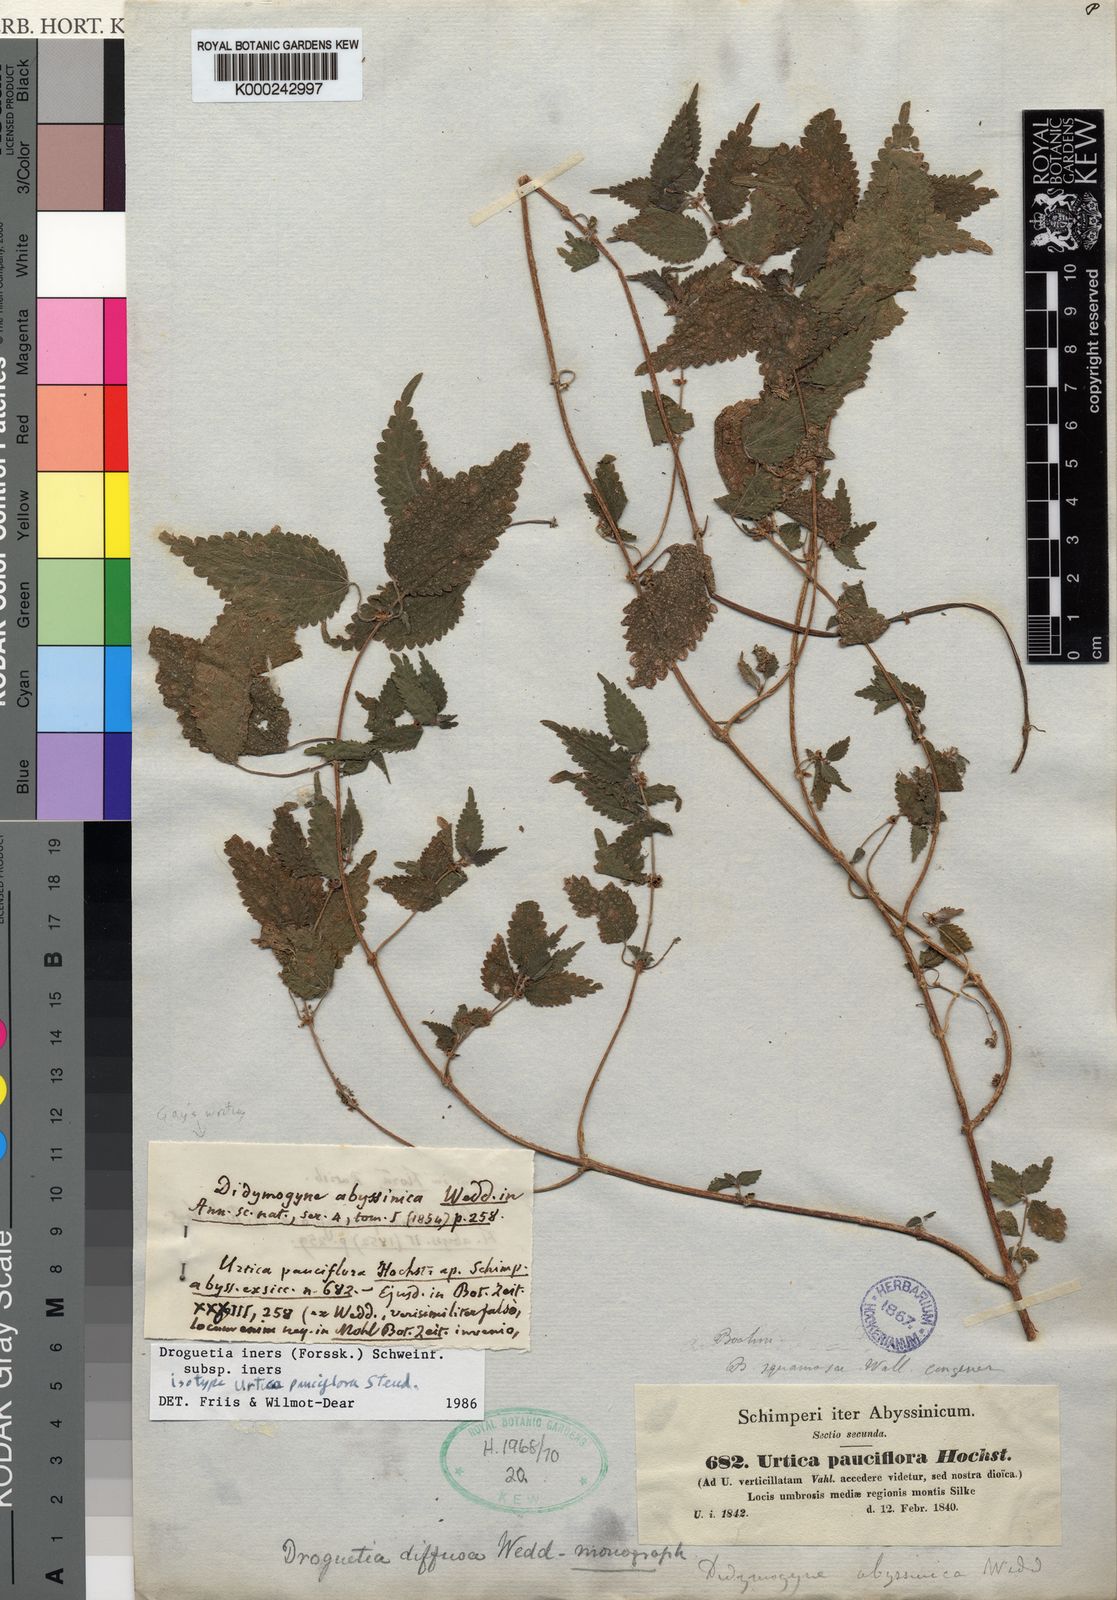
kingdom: Plantae
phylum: Tracheophyta
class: Magnoliopsida
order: Rosales
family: Urticaceae
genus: Droguetia
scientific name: Droguetia iners
